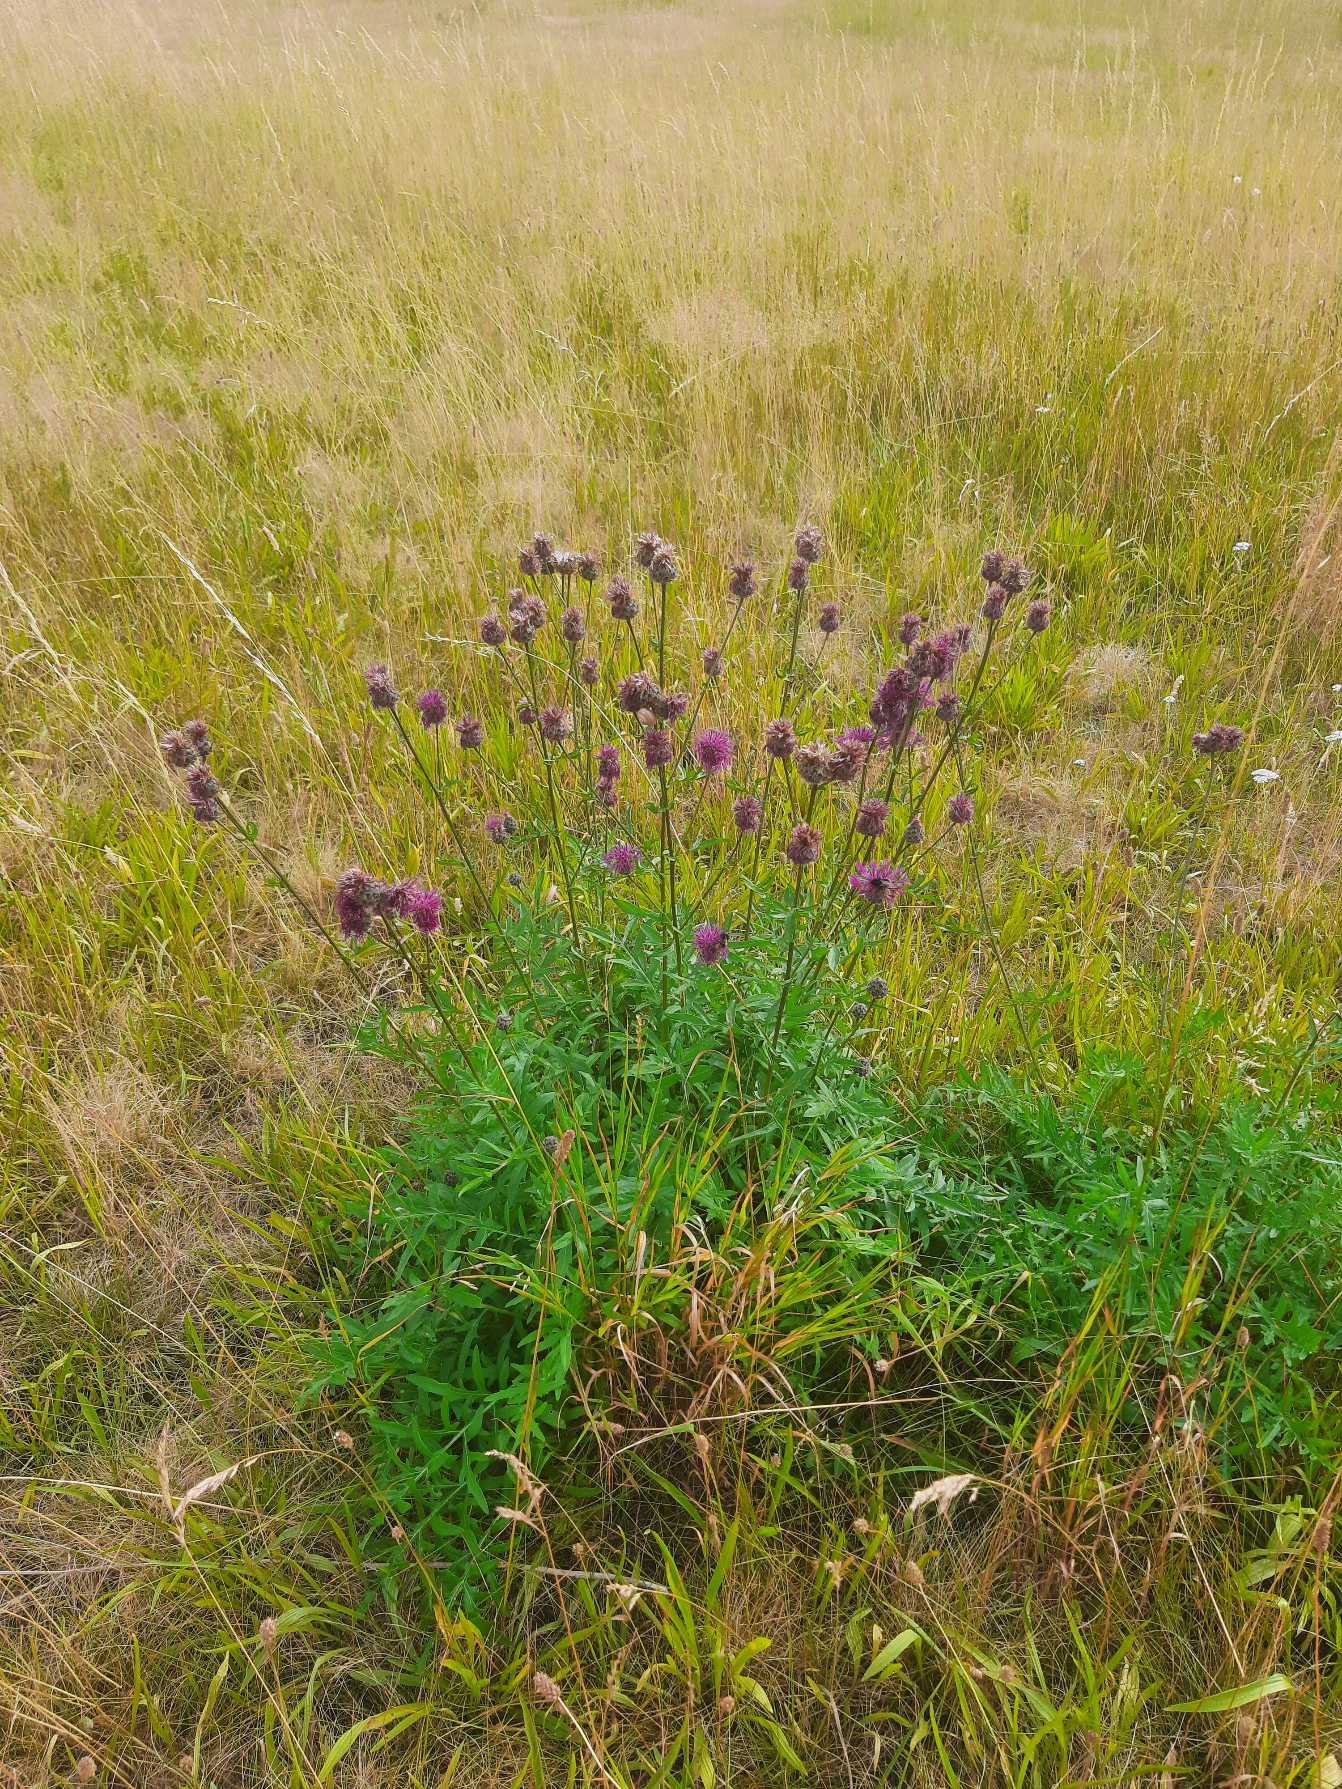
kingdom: Plantae
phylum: Tracheophyta
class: Magnoliopsida
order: Asterales
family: Asteraceae
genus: Centaurea
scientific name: Centaurea scabiosa
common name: Stor knopurt
